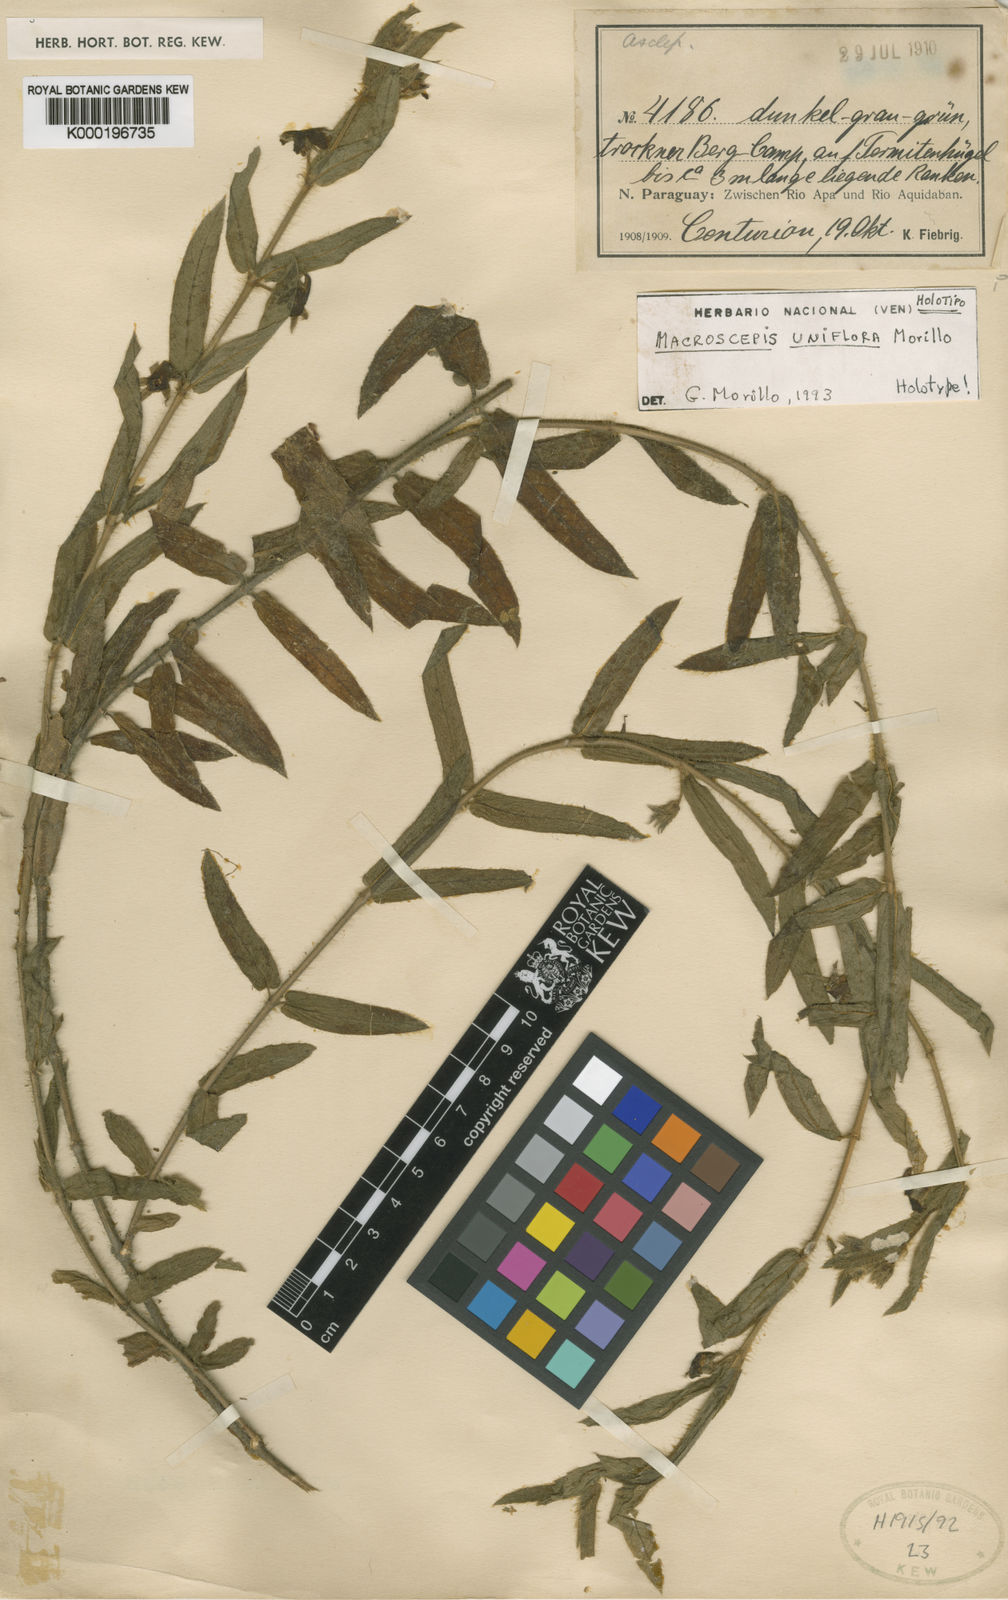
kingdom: Plantae
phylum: Tracheophyta
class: Magnoliopsida
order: Gentianales
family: Apocynaceae
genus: Macroscepis
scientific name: Macroscepis uniflora
